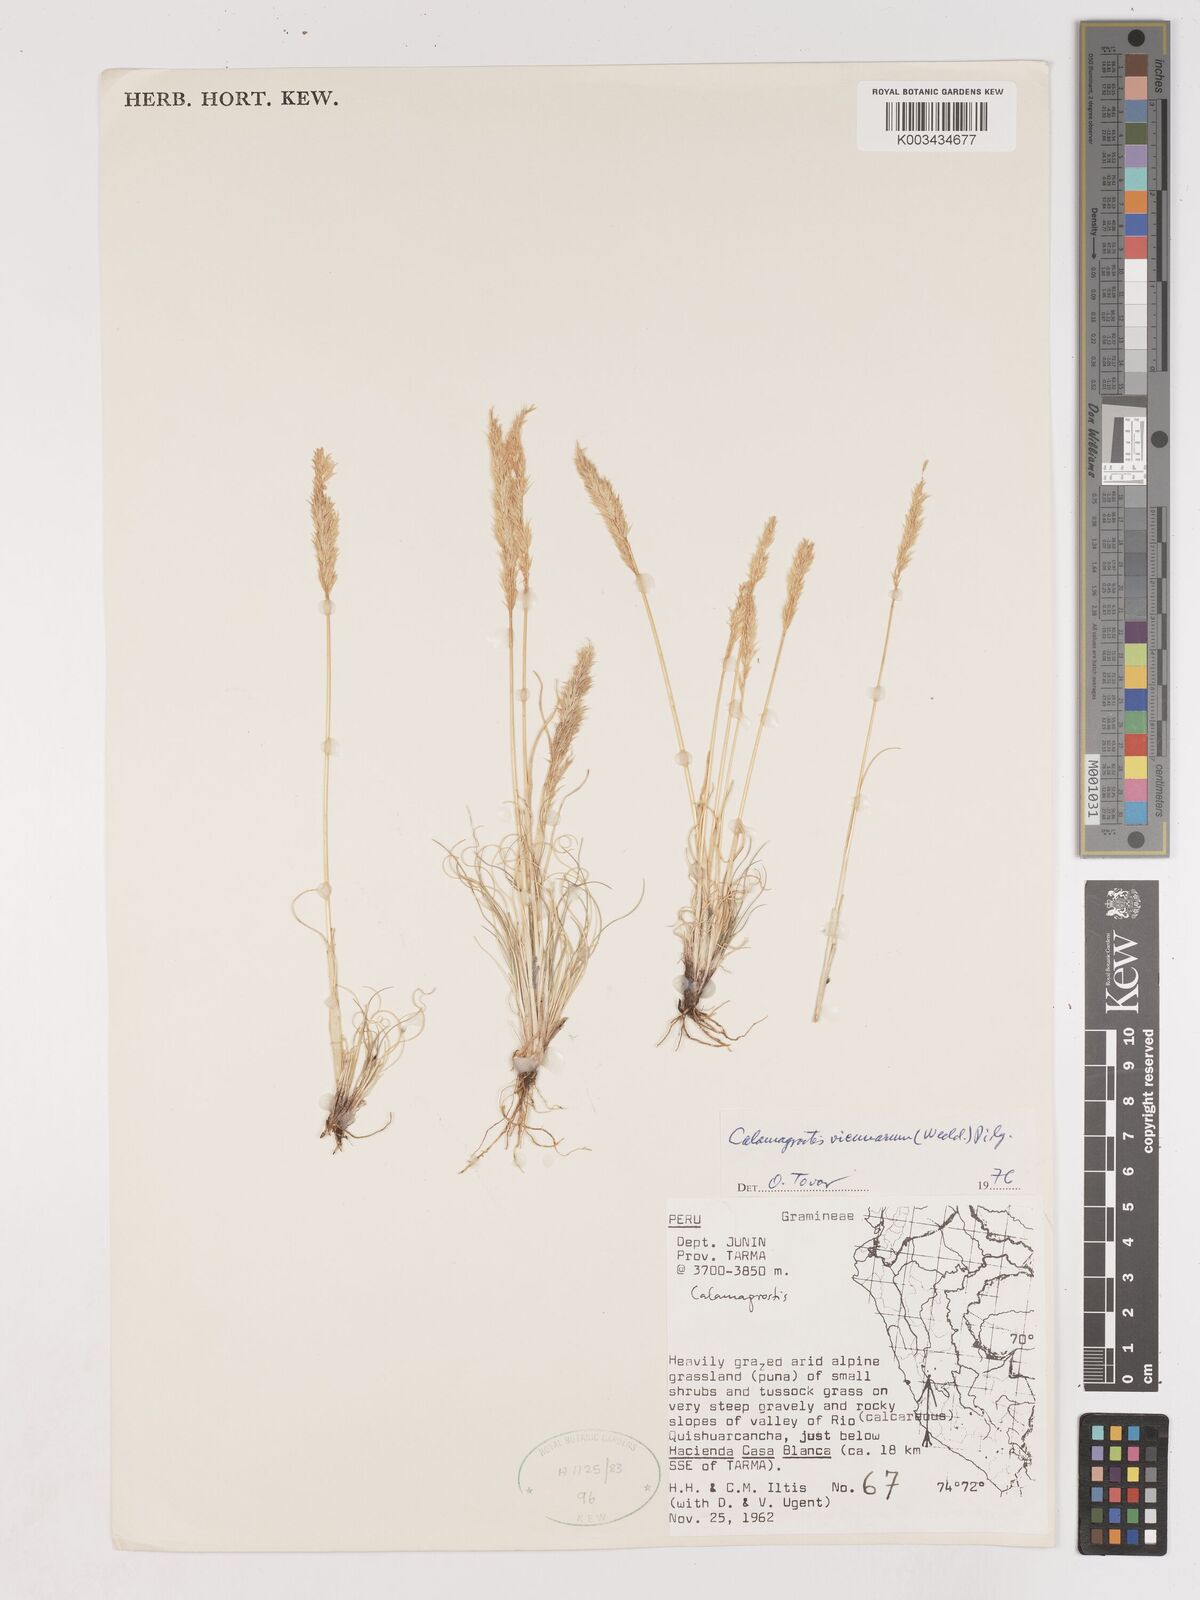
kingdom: Plantae
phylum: Tracheophyta
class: Liliopsida
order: Poales
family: Poaceae
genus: Cinnagrostis
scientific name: Cinnagrostis vicunarum
